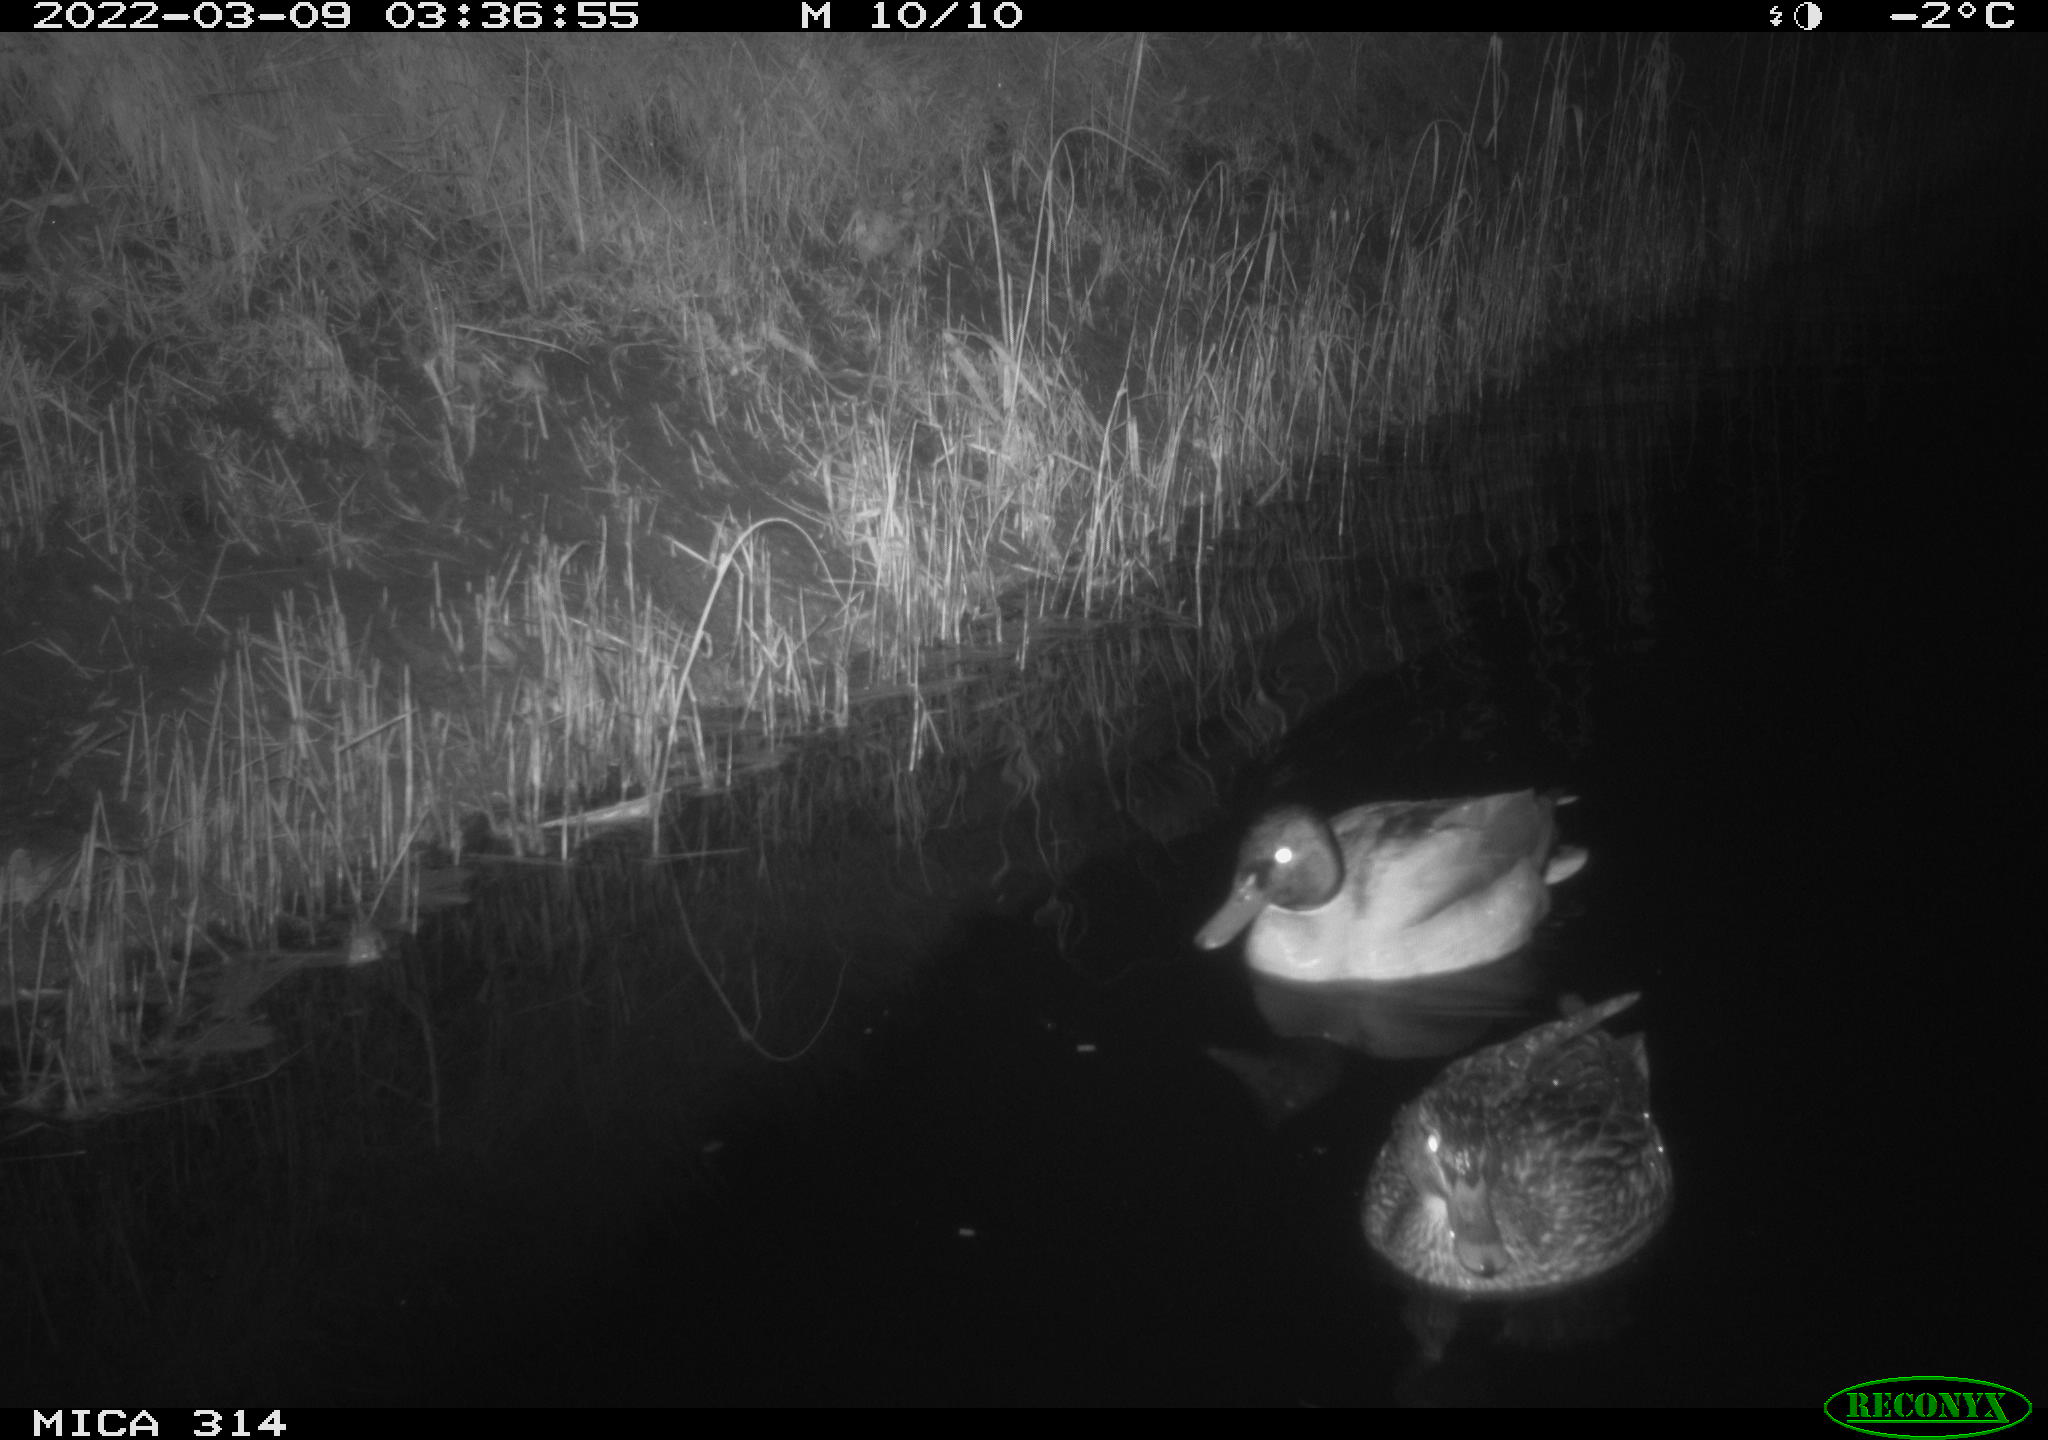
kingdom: Animalia
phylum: Chordata
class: Aves
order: Anseriformes
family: Anatidae
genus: Anas
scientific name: Anas platyrhynchos
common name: Mallard
